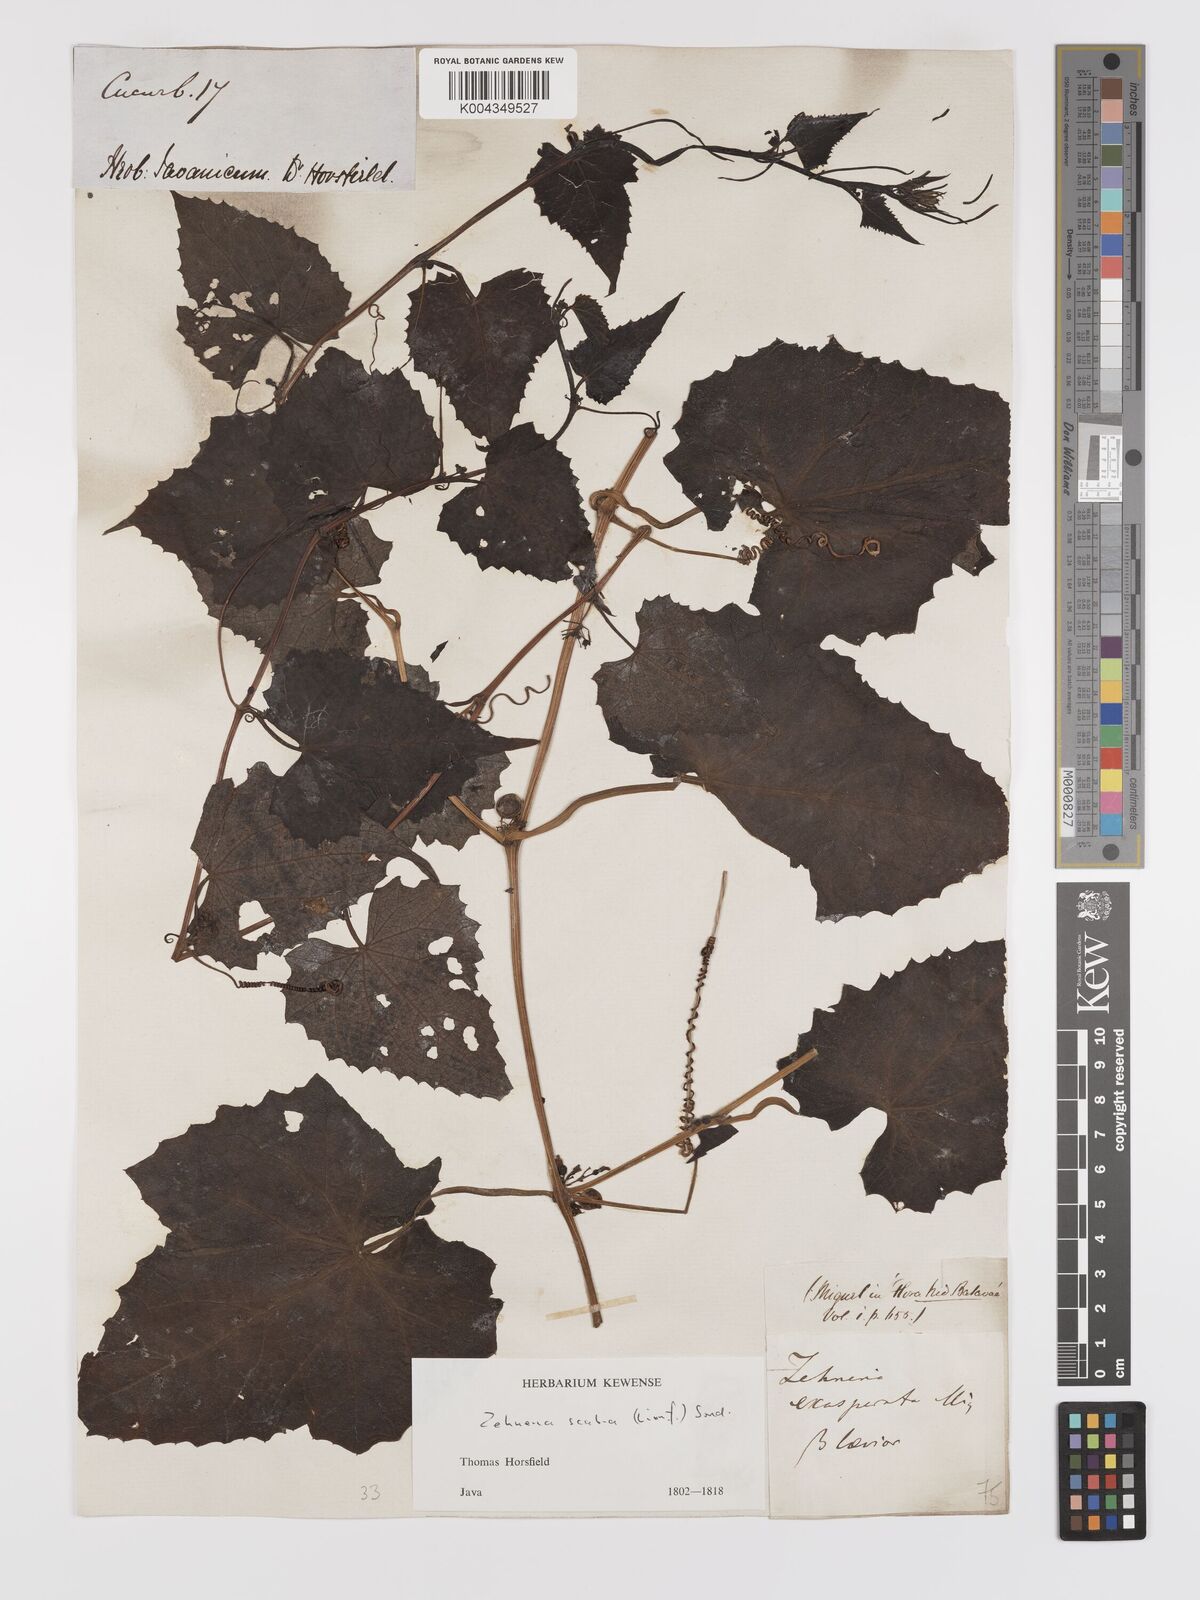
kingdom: Plantae
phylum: Tracheophyta
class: Magnoliopsida
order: Cucurbitales
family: Cucurbitaceae
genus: Zehneria
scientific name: Zehneria scabra
